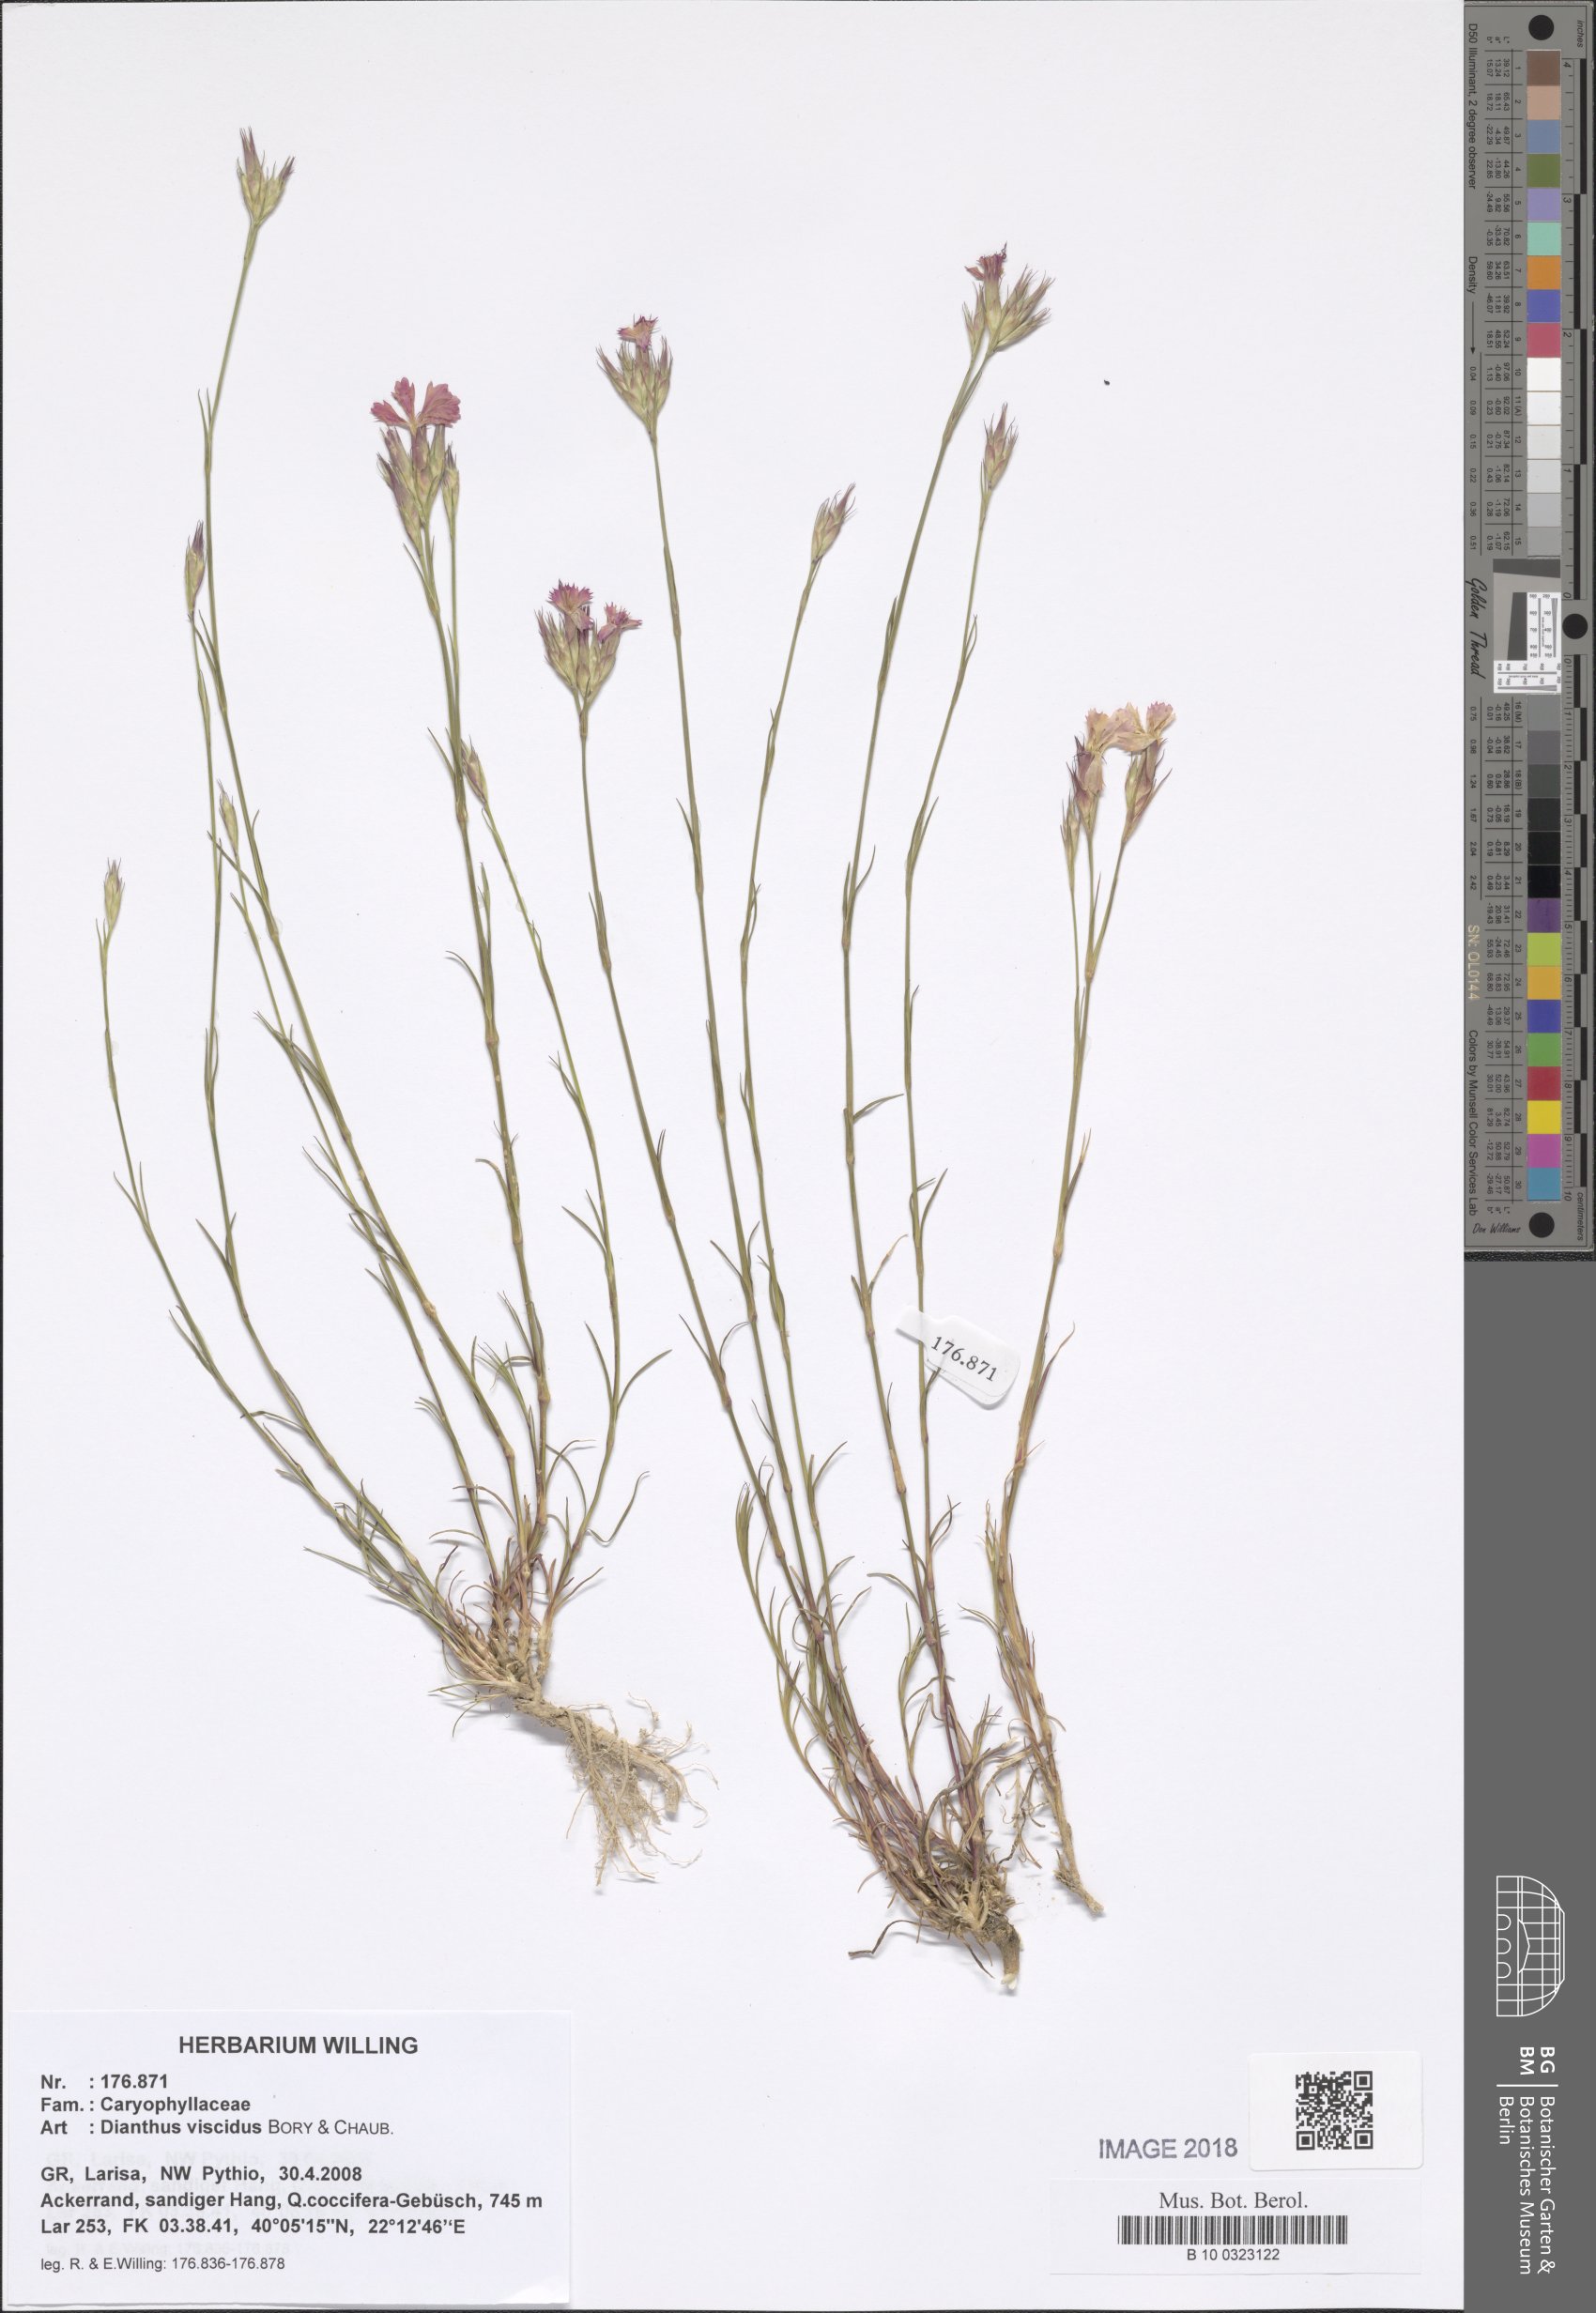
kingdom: Plantae
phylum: Tracheophyta
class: Magnoliopsida
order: Caryophyllales
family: Caryophyllaceae
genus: Dianthus
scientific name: Dianthus viscidus
